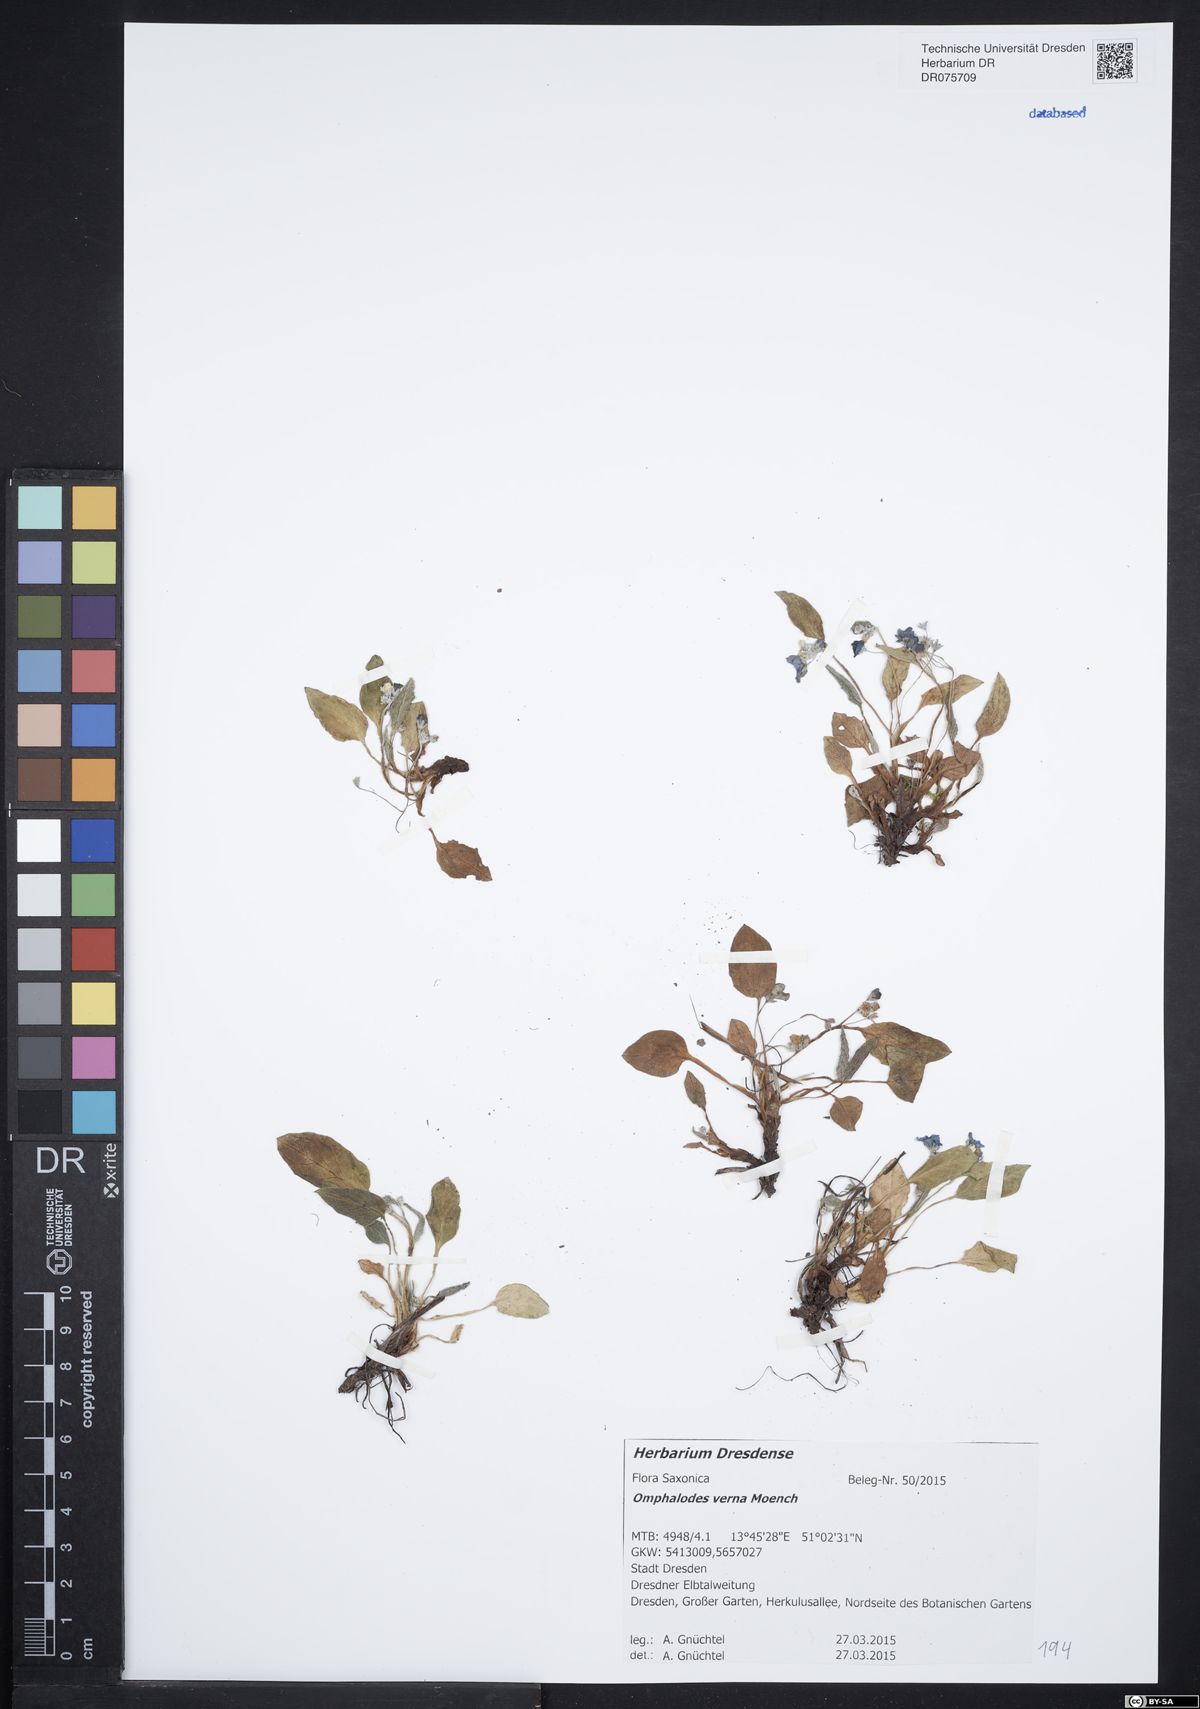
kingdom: Plantae
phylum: Tracheophyta
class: Magnoliopsida
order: Boraginales
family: Boraginaceae
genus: Omphalodes
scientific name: Omphalodes verna
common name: Blue-eyed-mary
